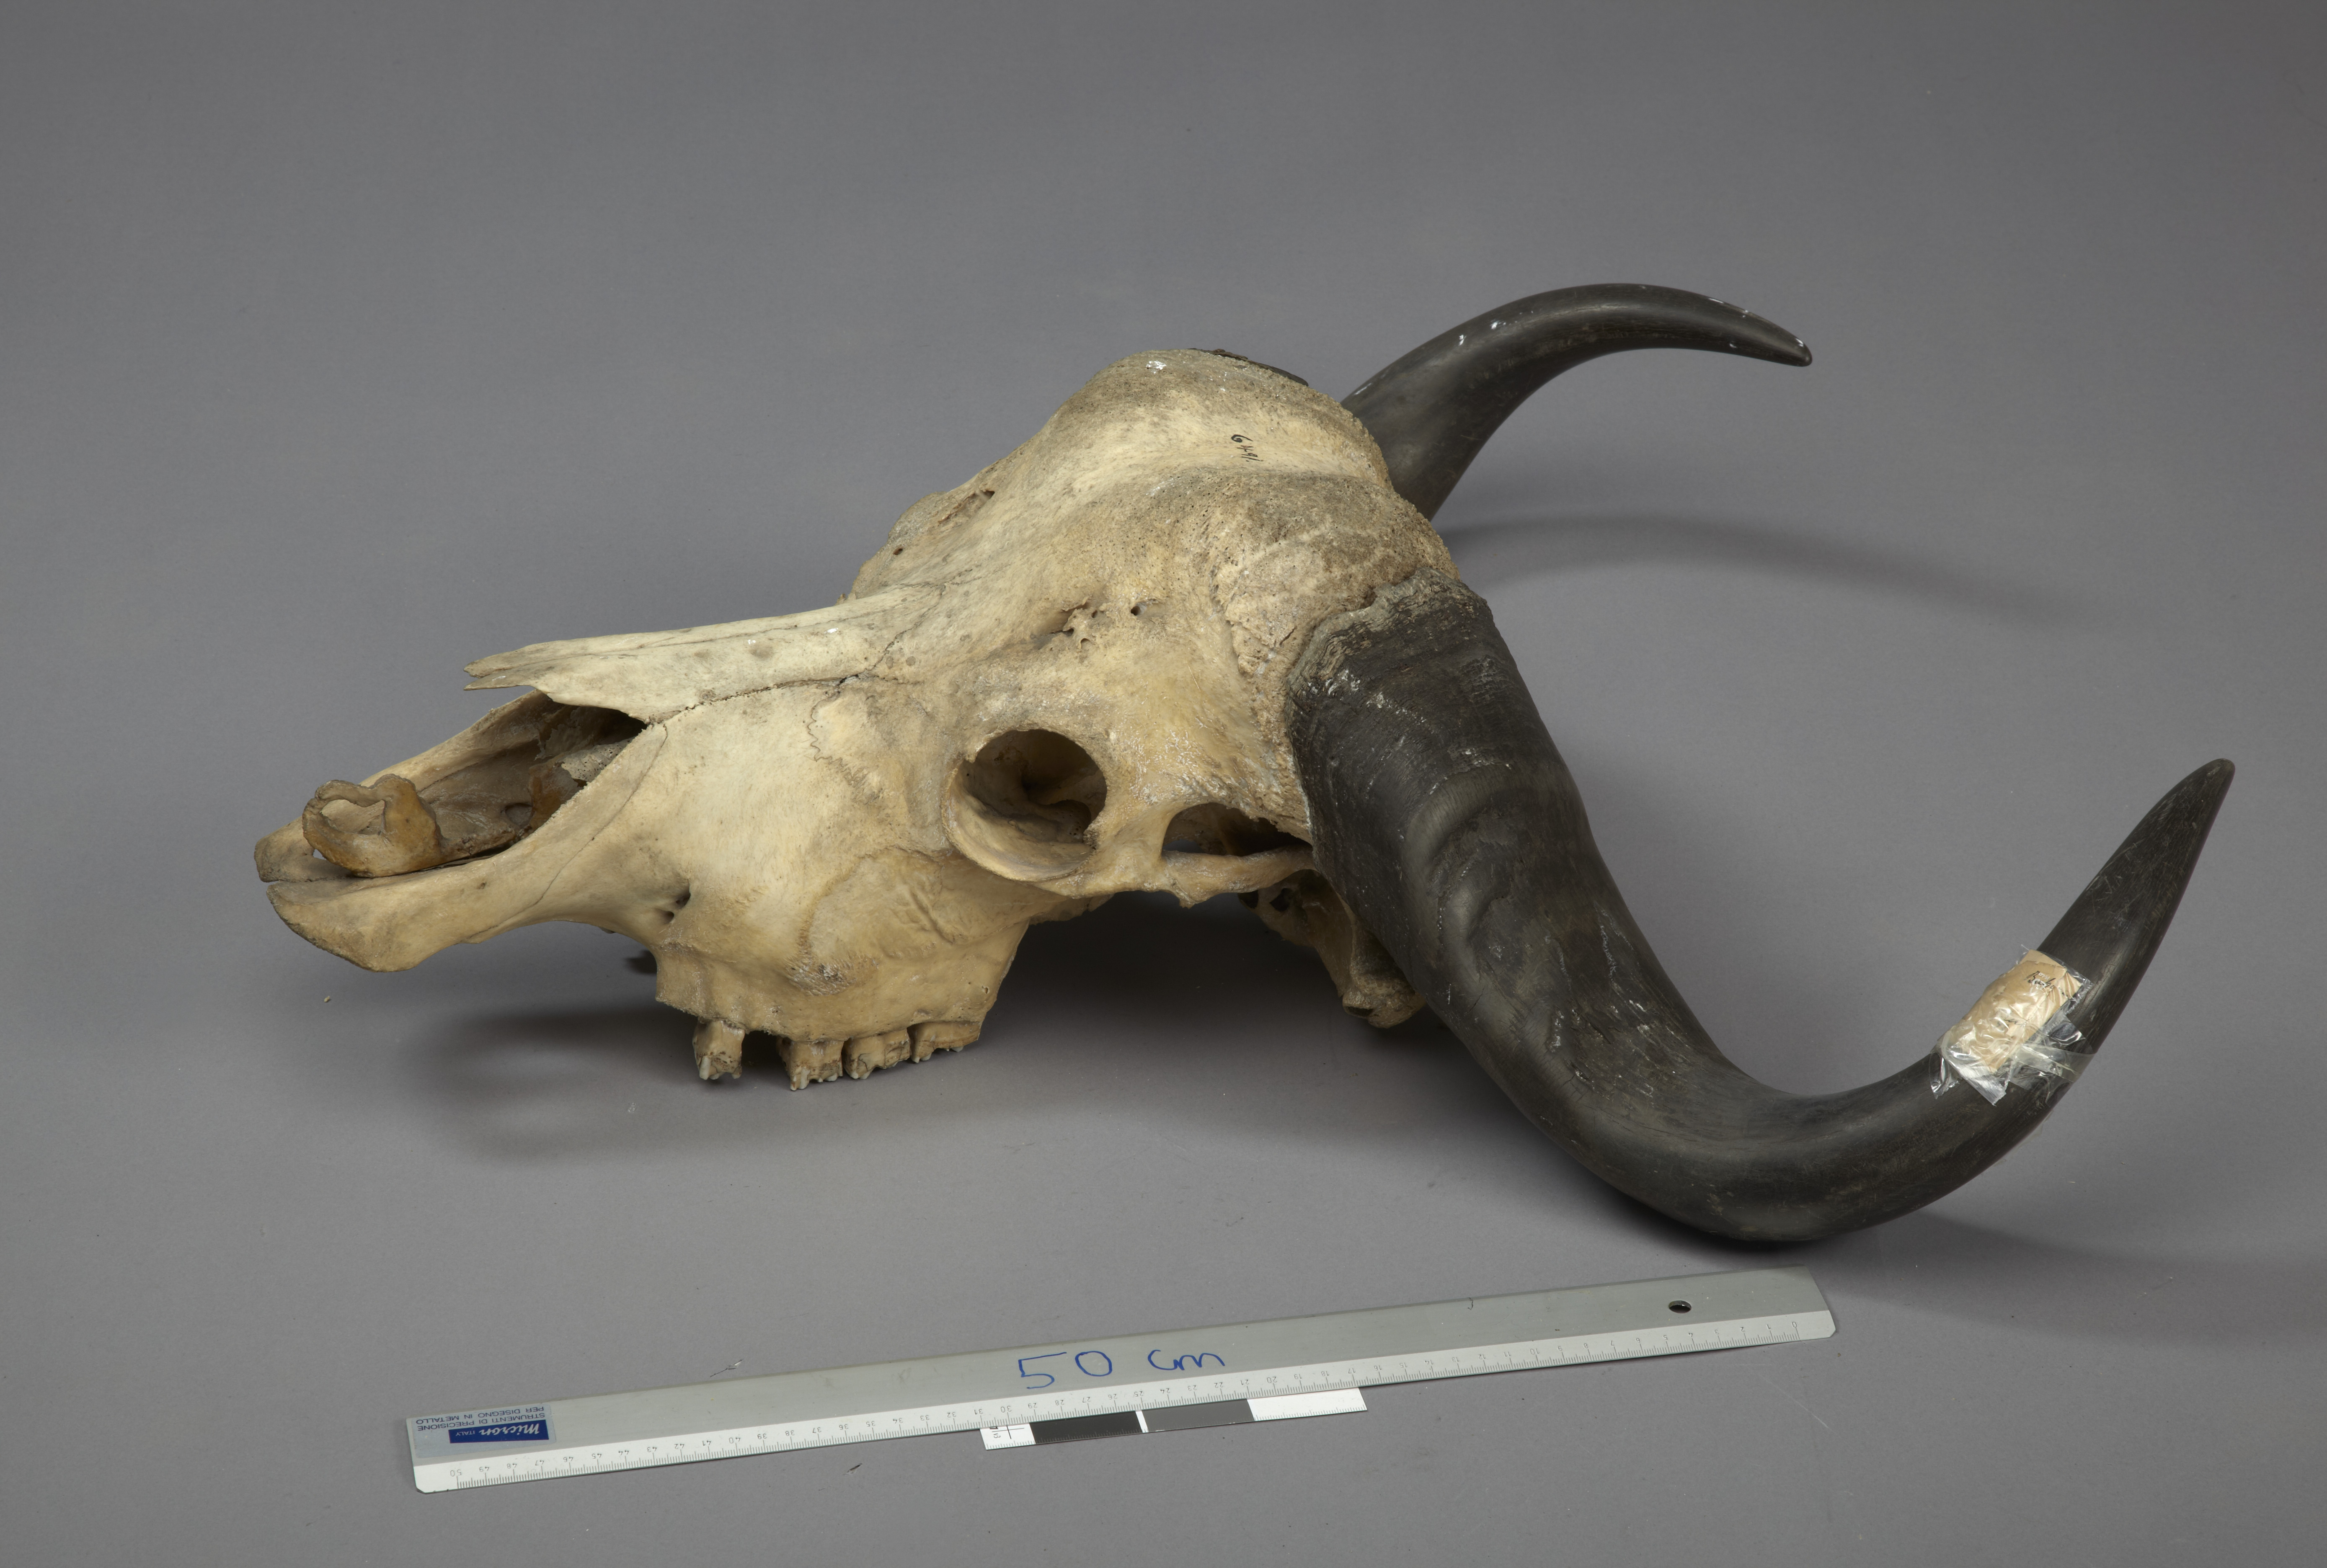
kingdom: Animalia
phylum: Chordata
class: Mammalia
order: Artiodactyla
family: Bovidae
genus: Syncerus
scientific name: Syncerus caffer
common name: African buffalo
